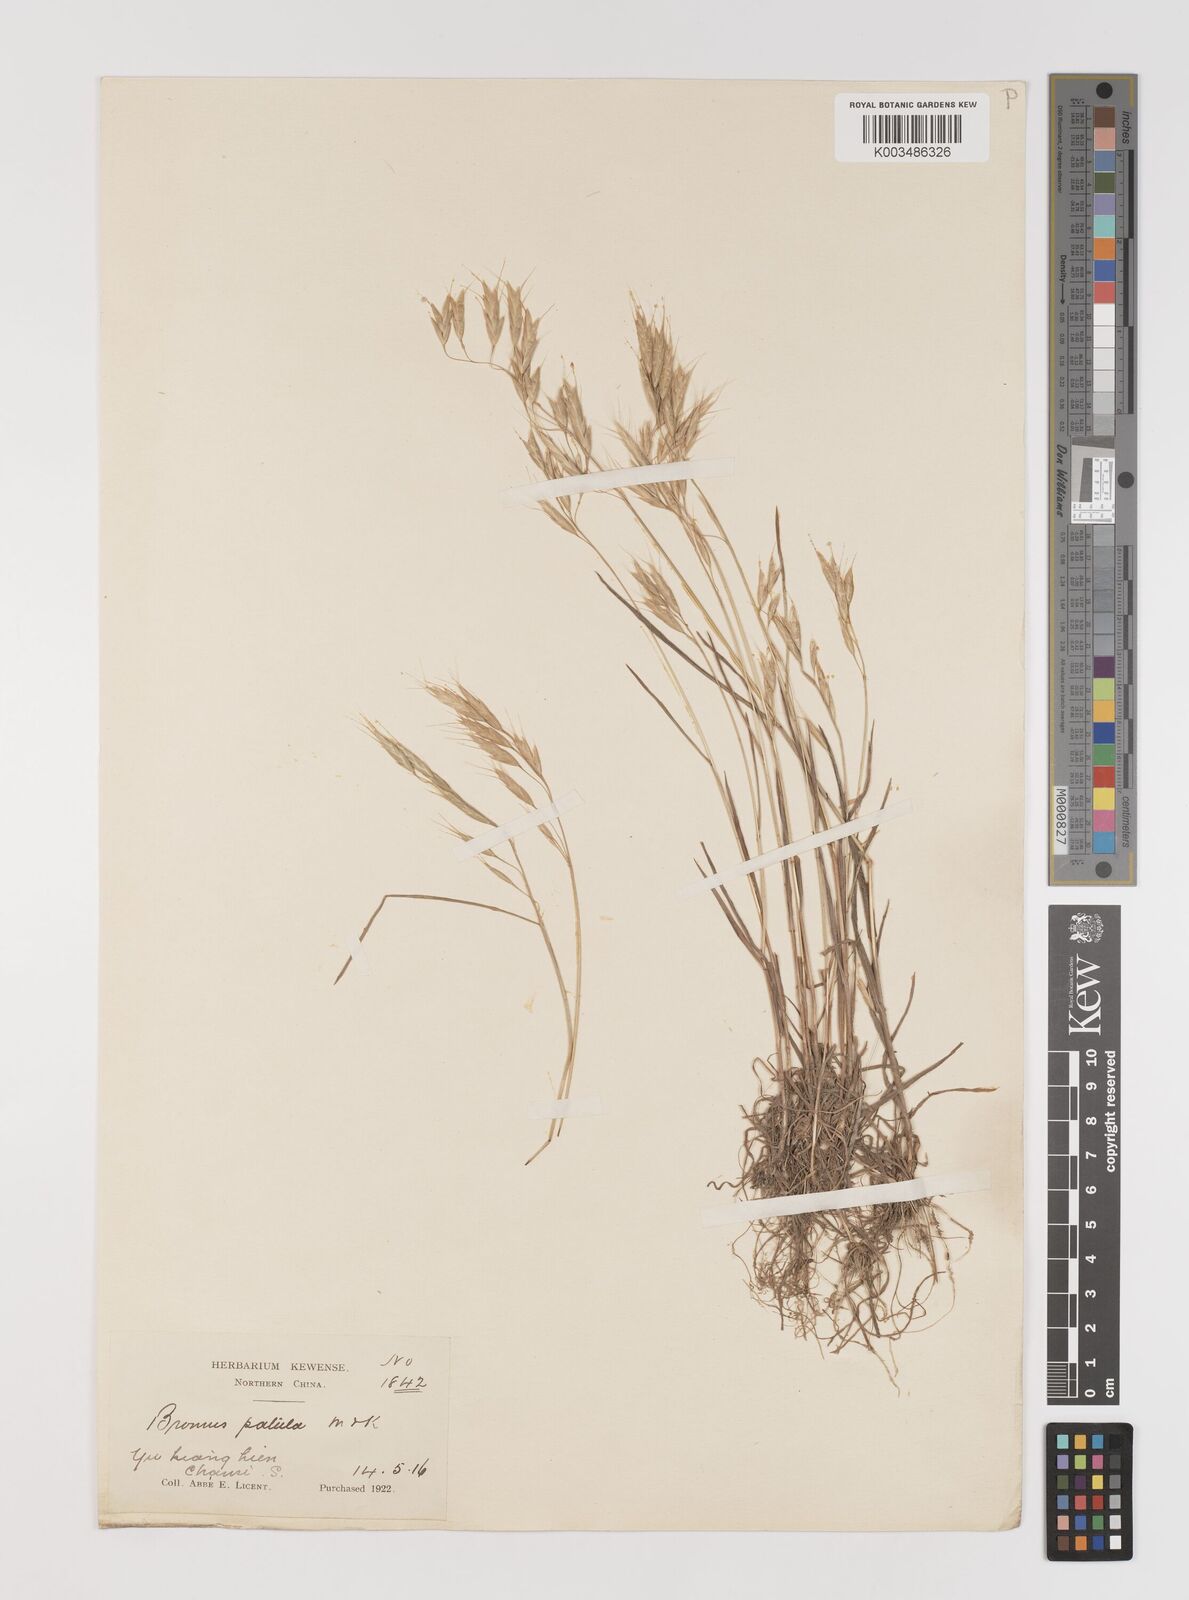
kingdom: Plantae
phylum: Tracheophyta
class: Liliopsida
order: Poales
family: Poaceae
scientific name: Poaceae
